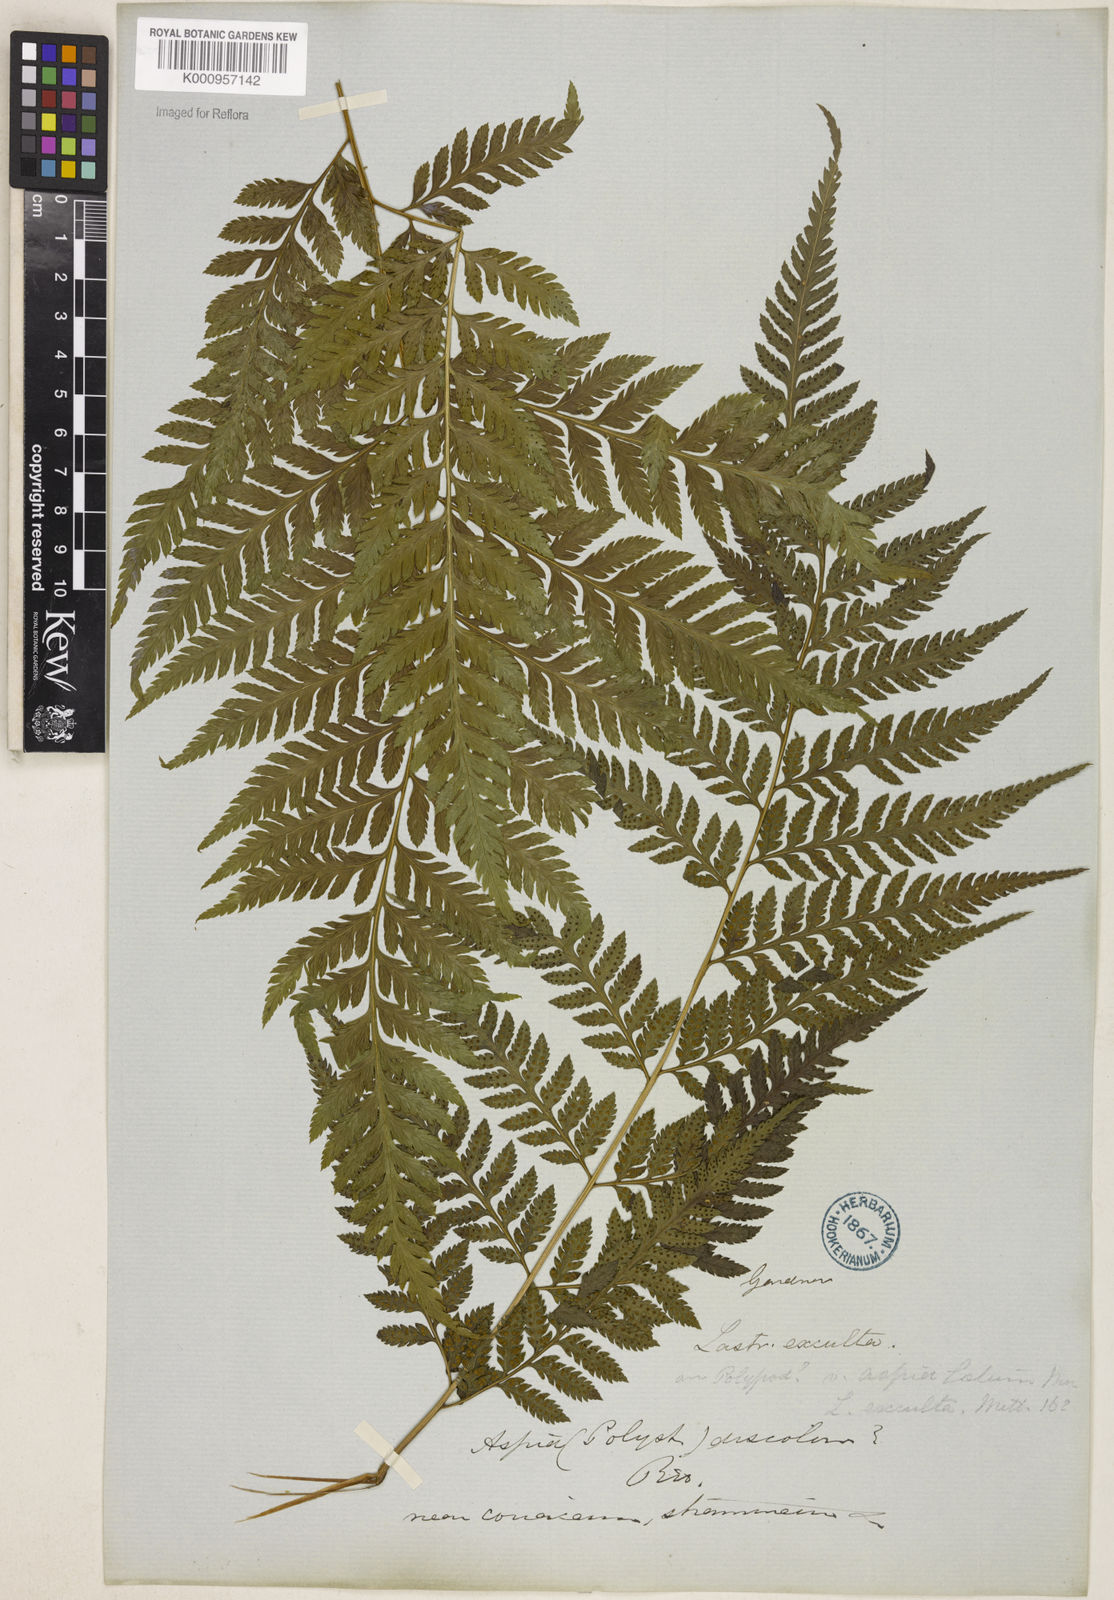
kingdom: Plantae
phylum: Tracheophyta
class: Polypodiopsida
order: Polypodiales
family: Dryopteridaceae
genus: Parapolystichum
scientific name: Parapolystichum effusum
